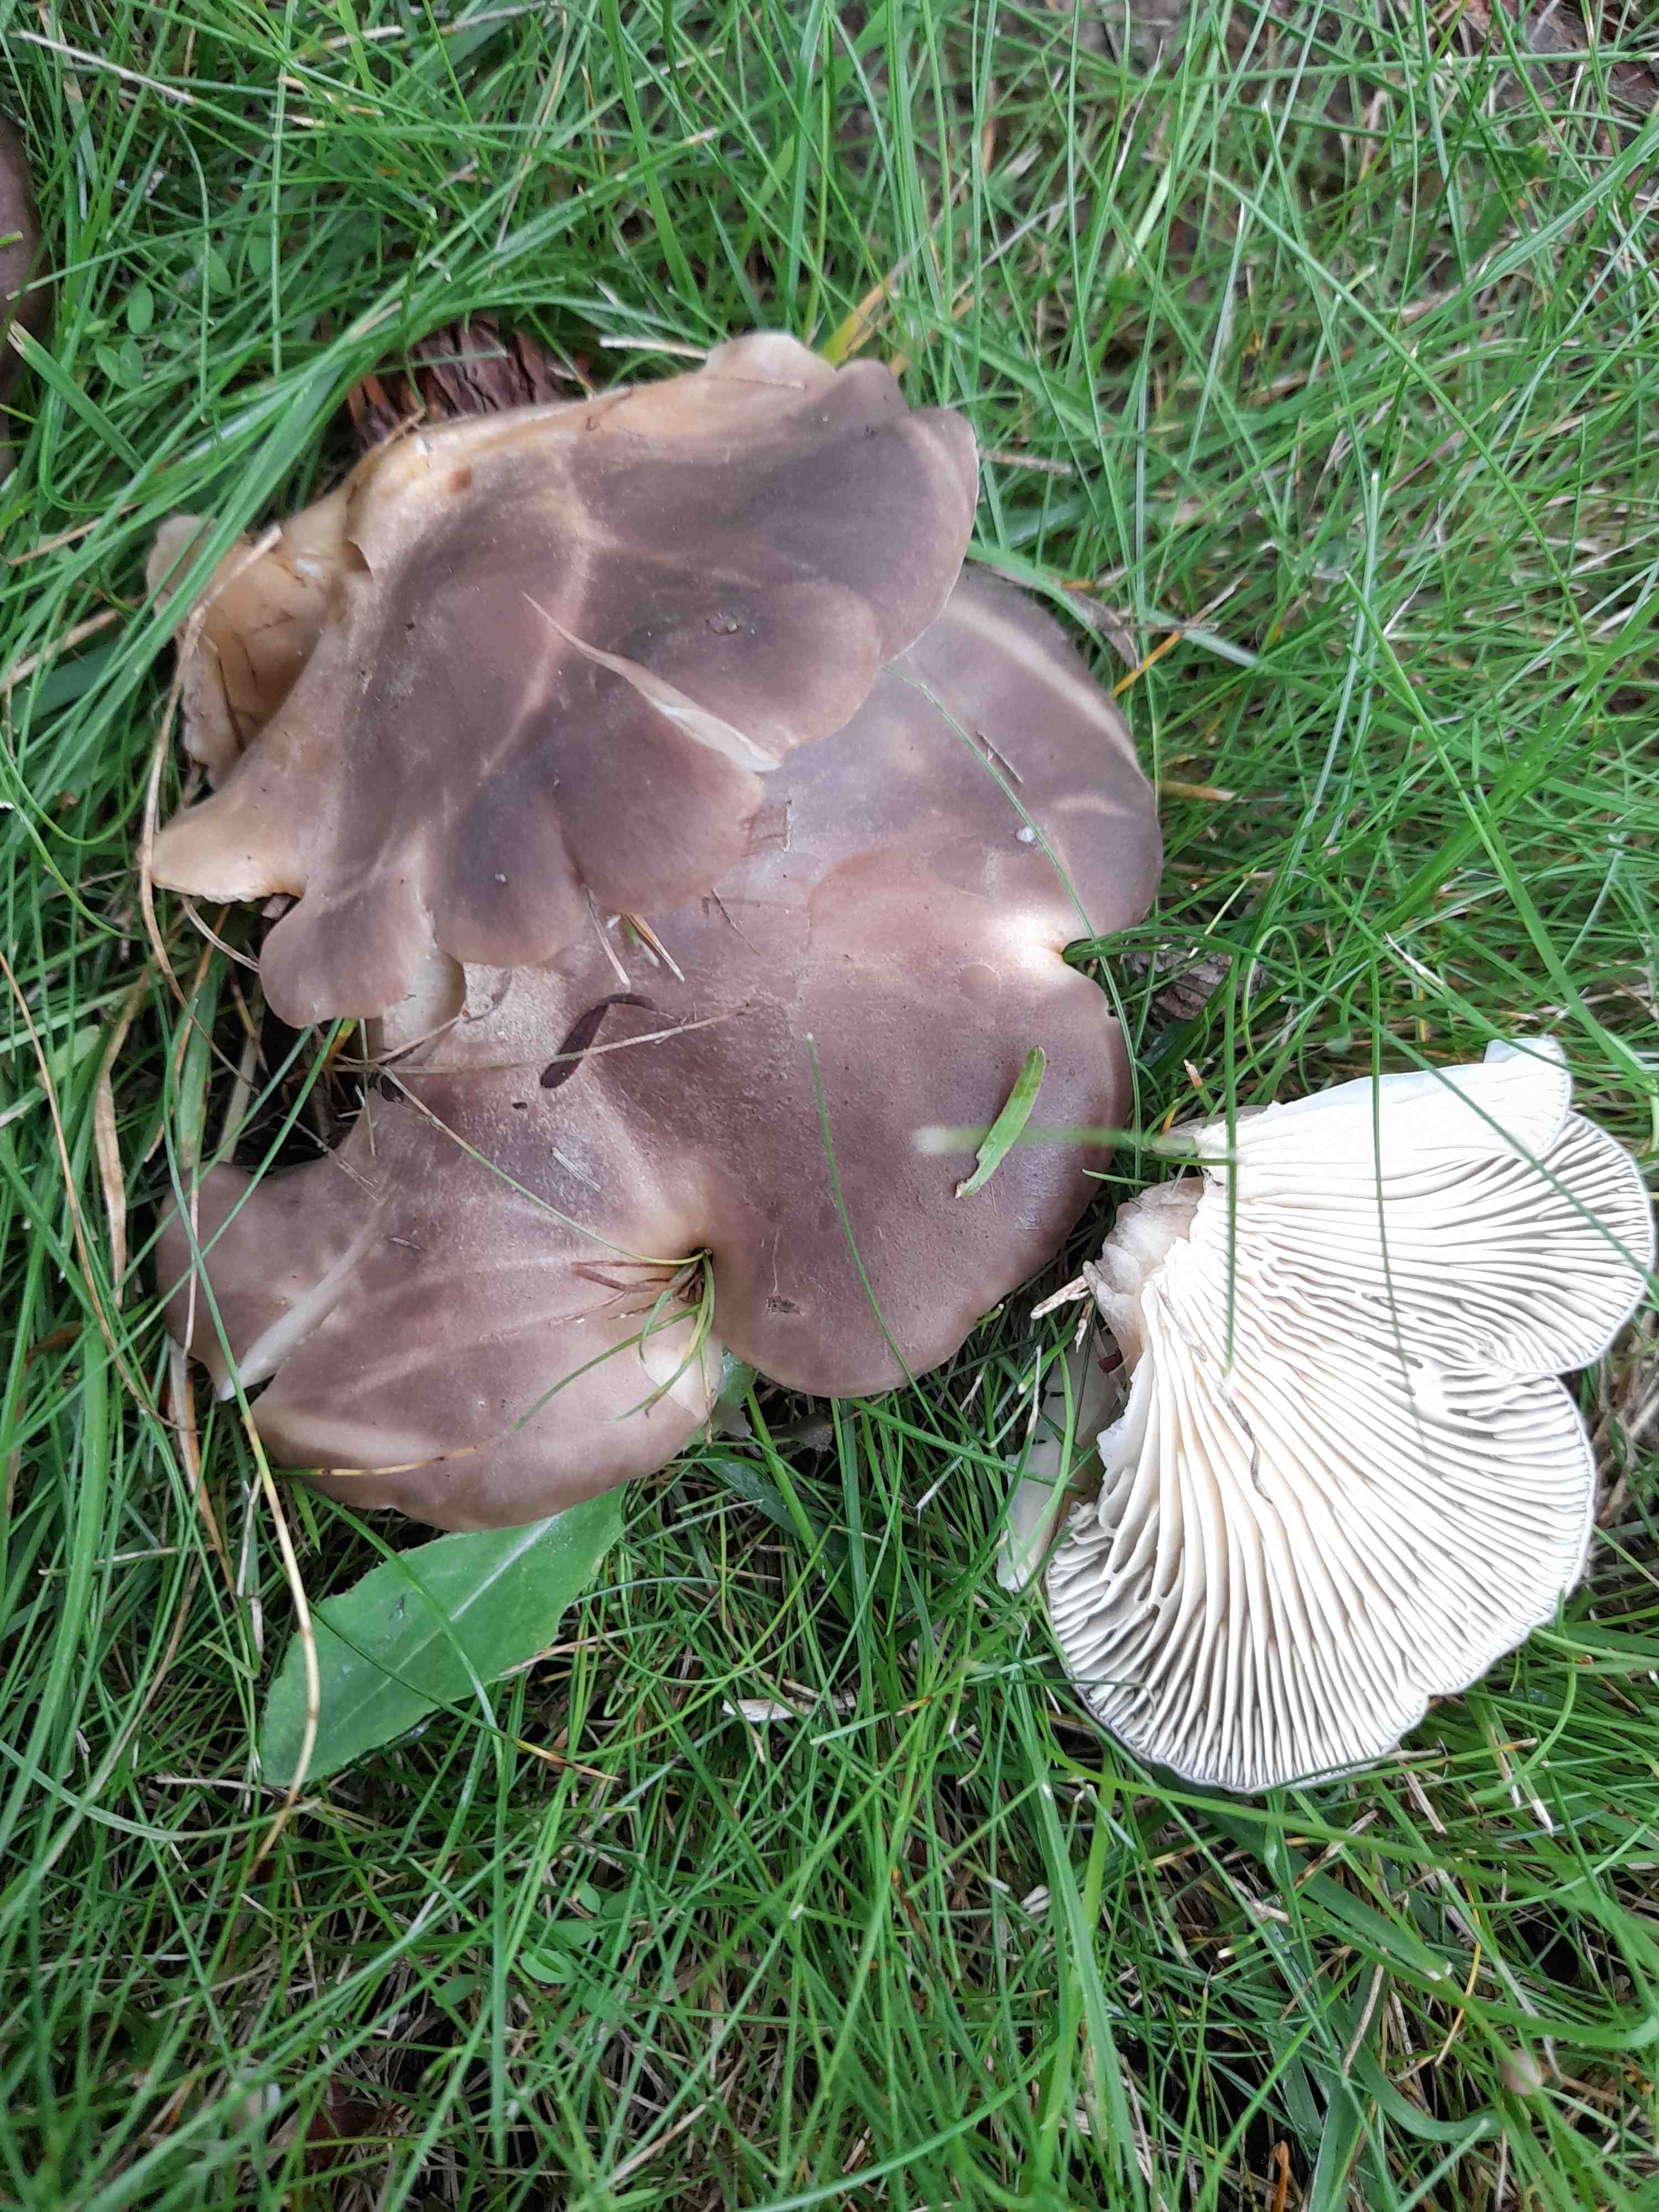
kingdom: Fungi
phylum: Basidiomycota
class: Agaricomycetes
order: Agaricales
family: Lyophyllaceae
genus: Lyophyllum
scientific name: Lyophyllum decastes
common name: Clustered domecap
